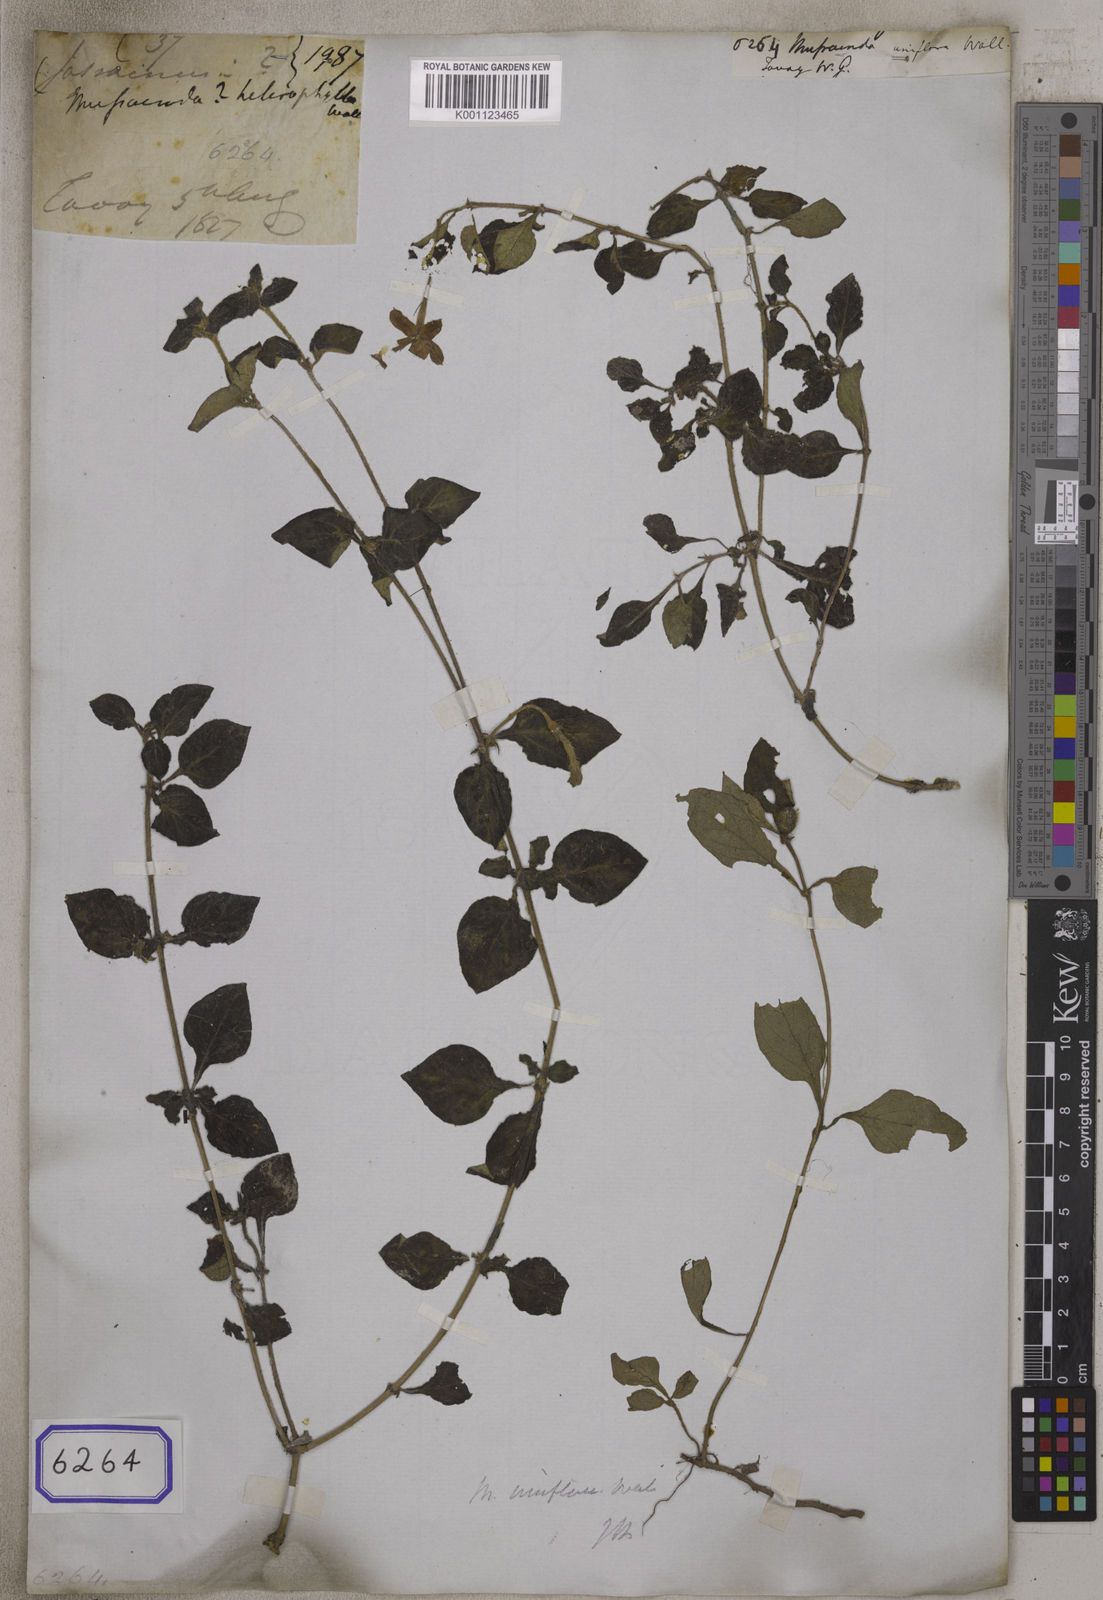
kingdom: Plantae
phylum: Tracheophyta
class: Magnoliopsida
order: Gentianales
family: Rubiaceae
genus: Mussaenda
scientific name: Mussaenda
